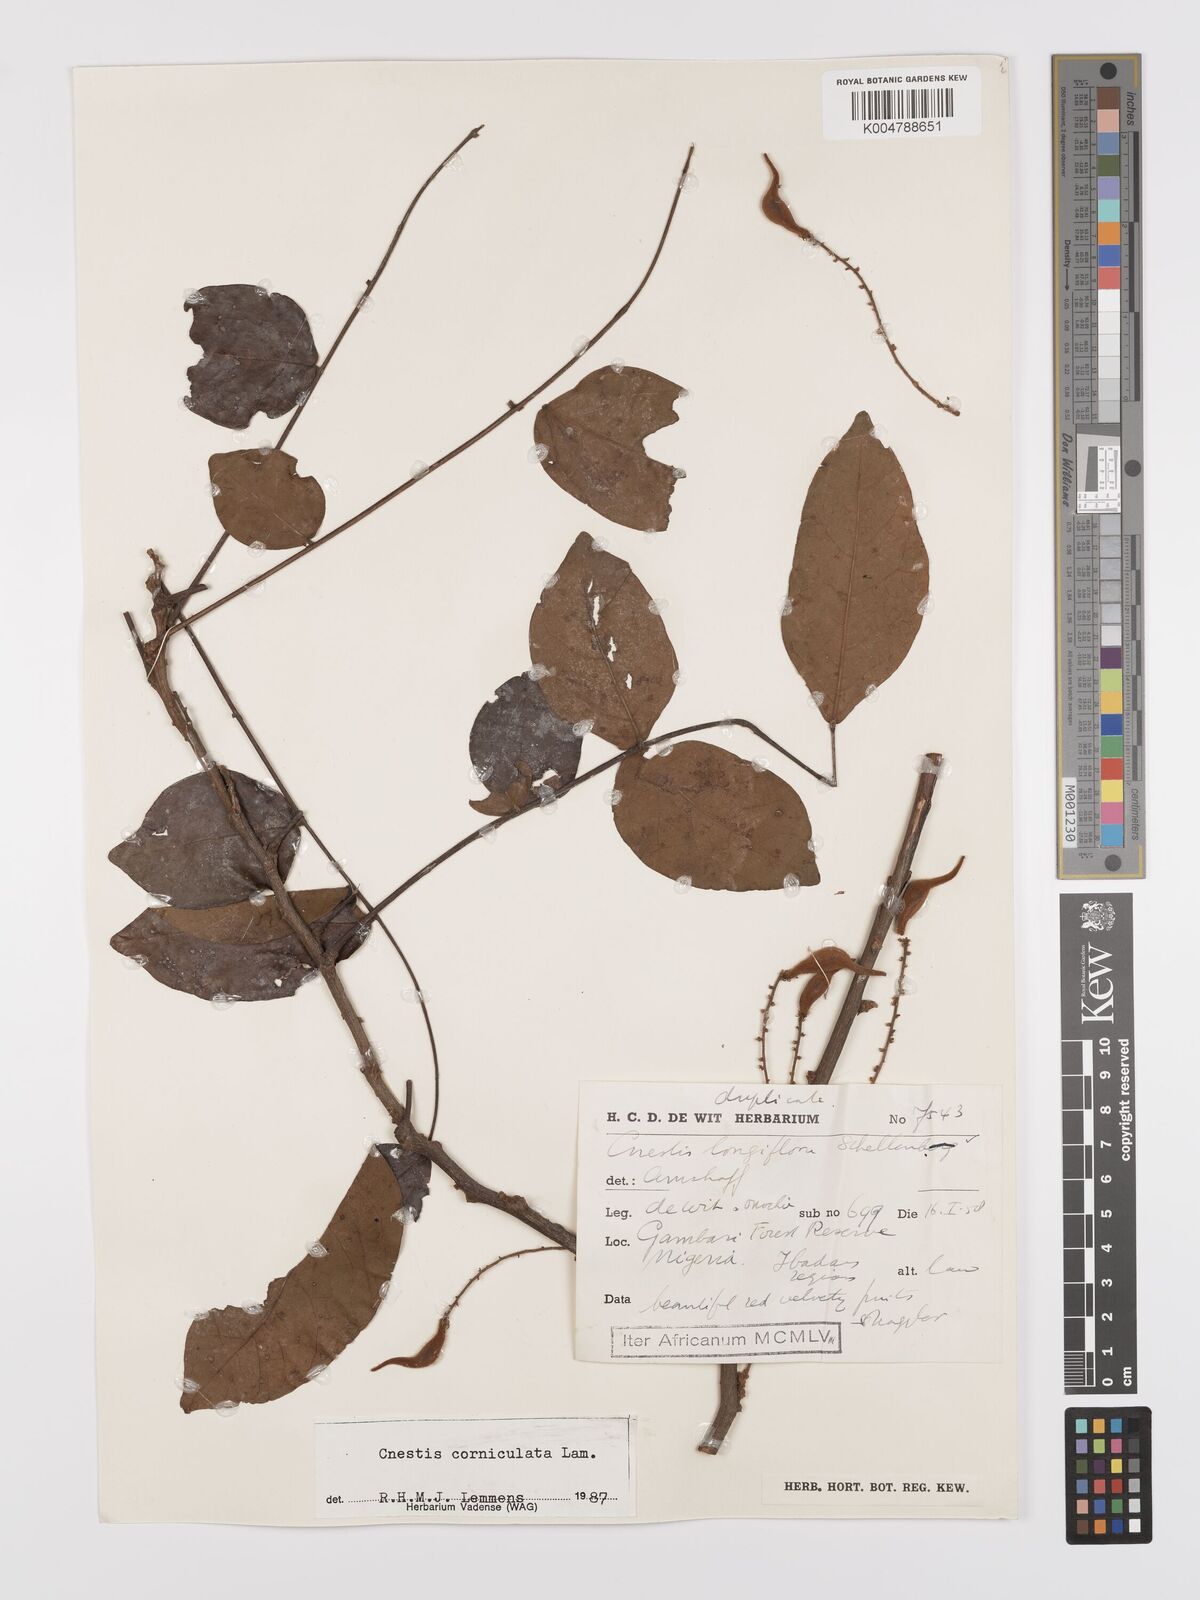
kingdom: Plantae
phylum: Tracheophyta
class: Magnoliopsida
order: Oxalidales
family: Connaraceae
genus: Cnestis
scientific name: Cnestis corniculata
